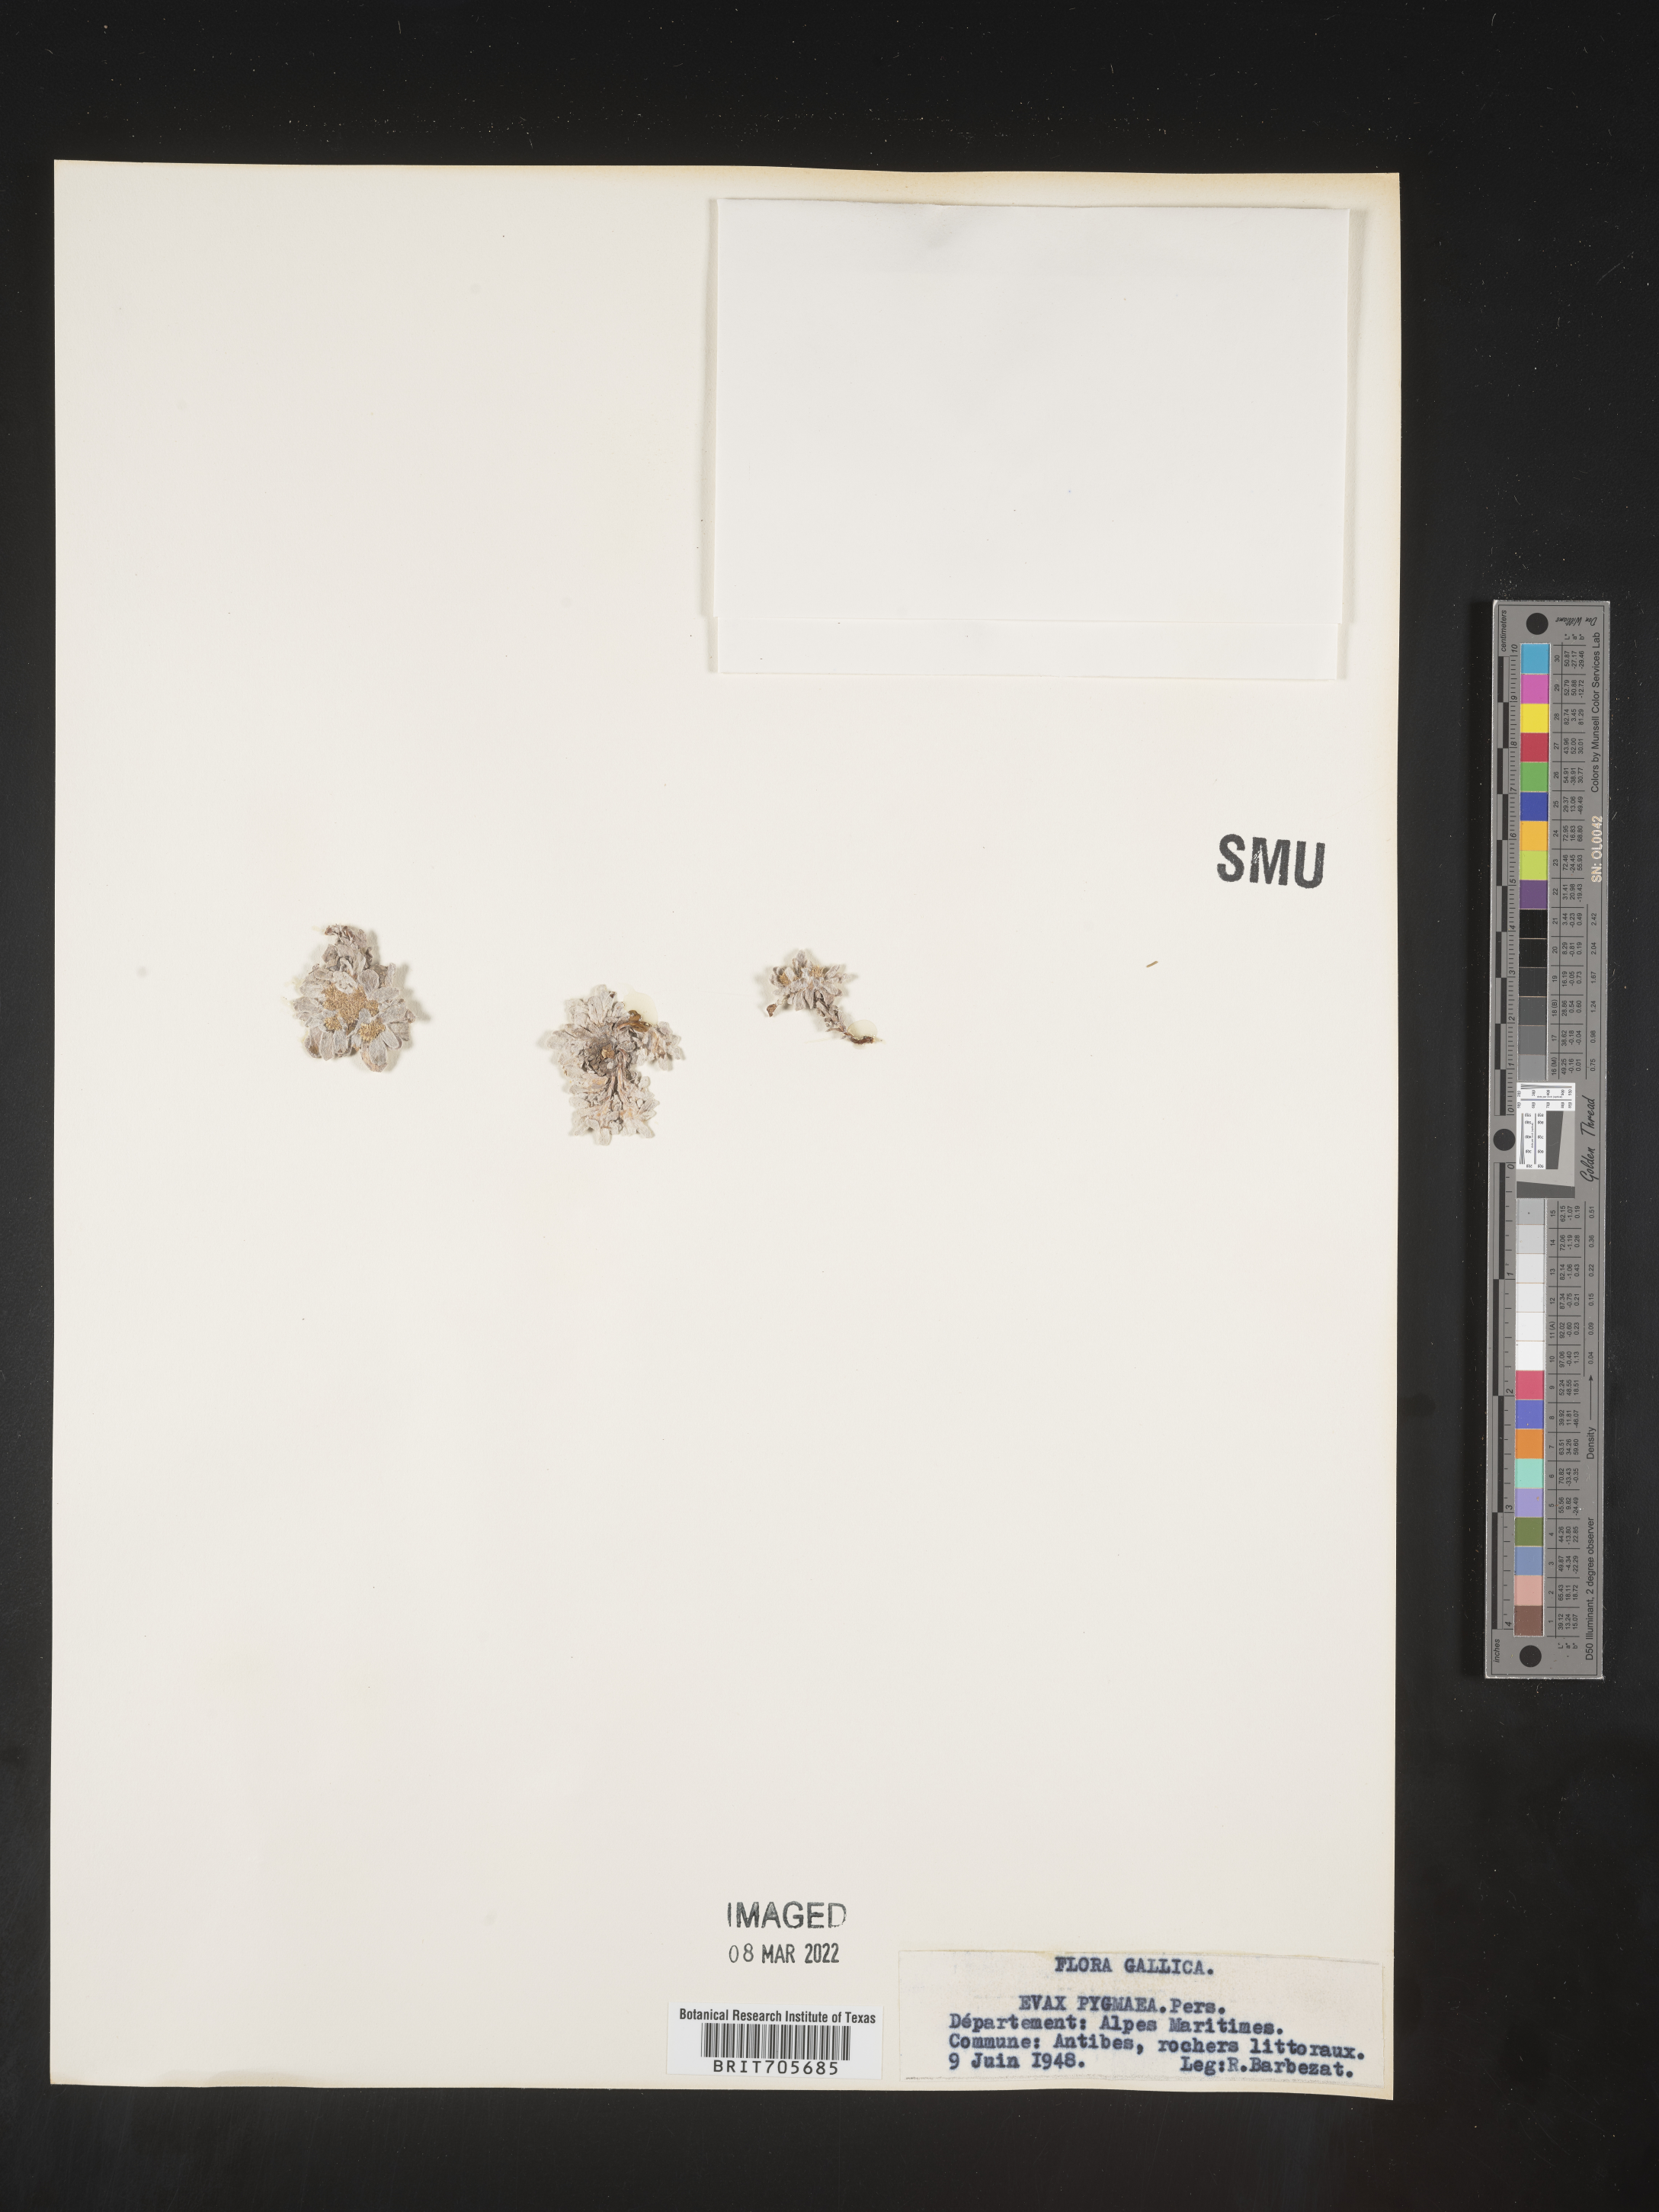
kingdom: Plantae
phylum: Tracheophyta
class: Magnoliopsida
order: Asterales
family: Asteraceae
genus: Filago
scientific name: Filago
